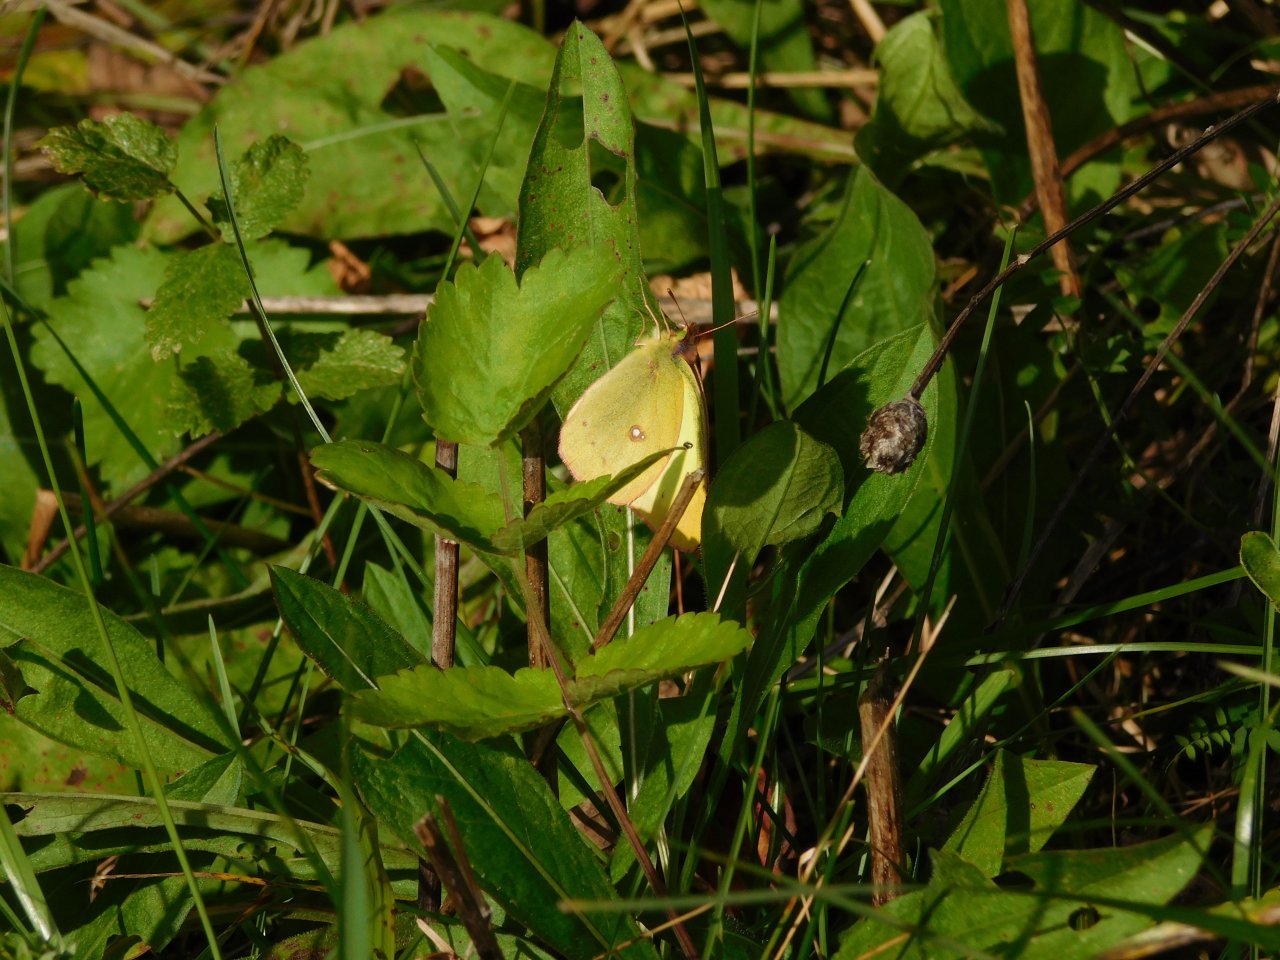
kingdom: Animalia
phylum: Arthropoda
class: Insecta
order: Lepidoptera
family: Pieridae
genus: Colias
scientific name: Colias philodice
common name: Clouded Sulphur
